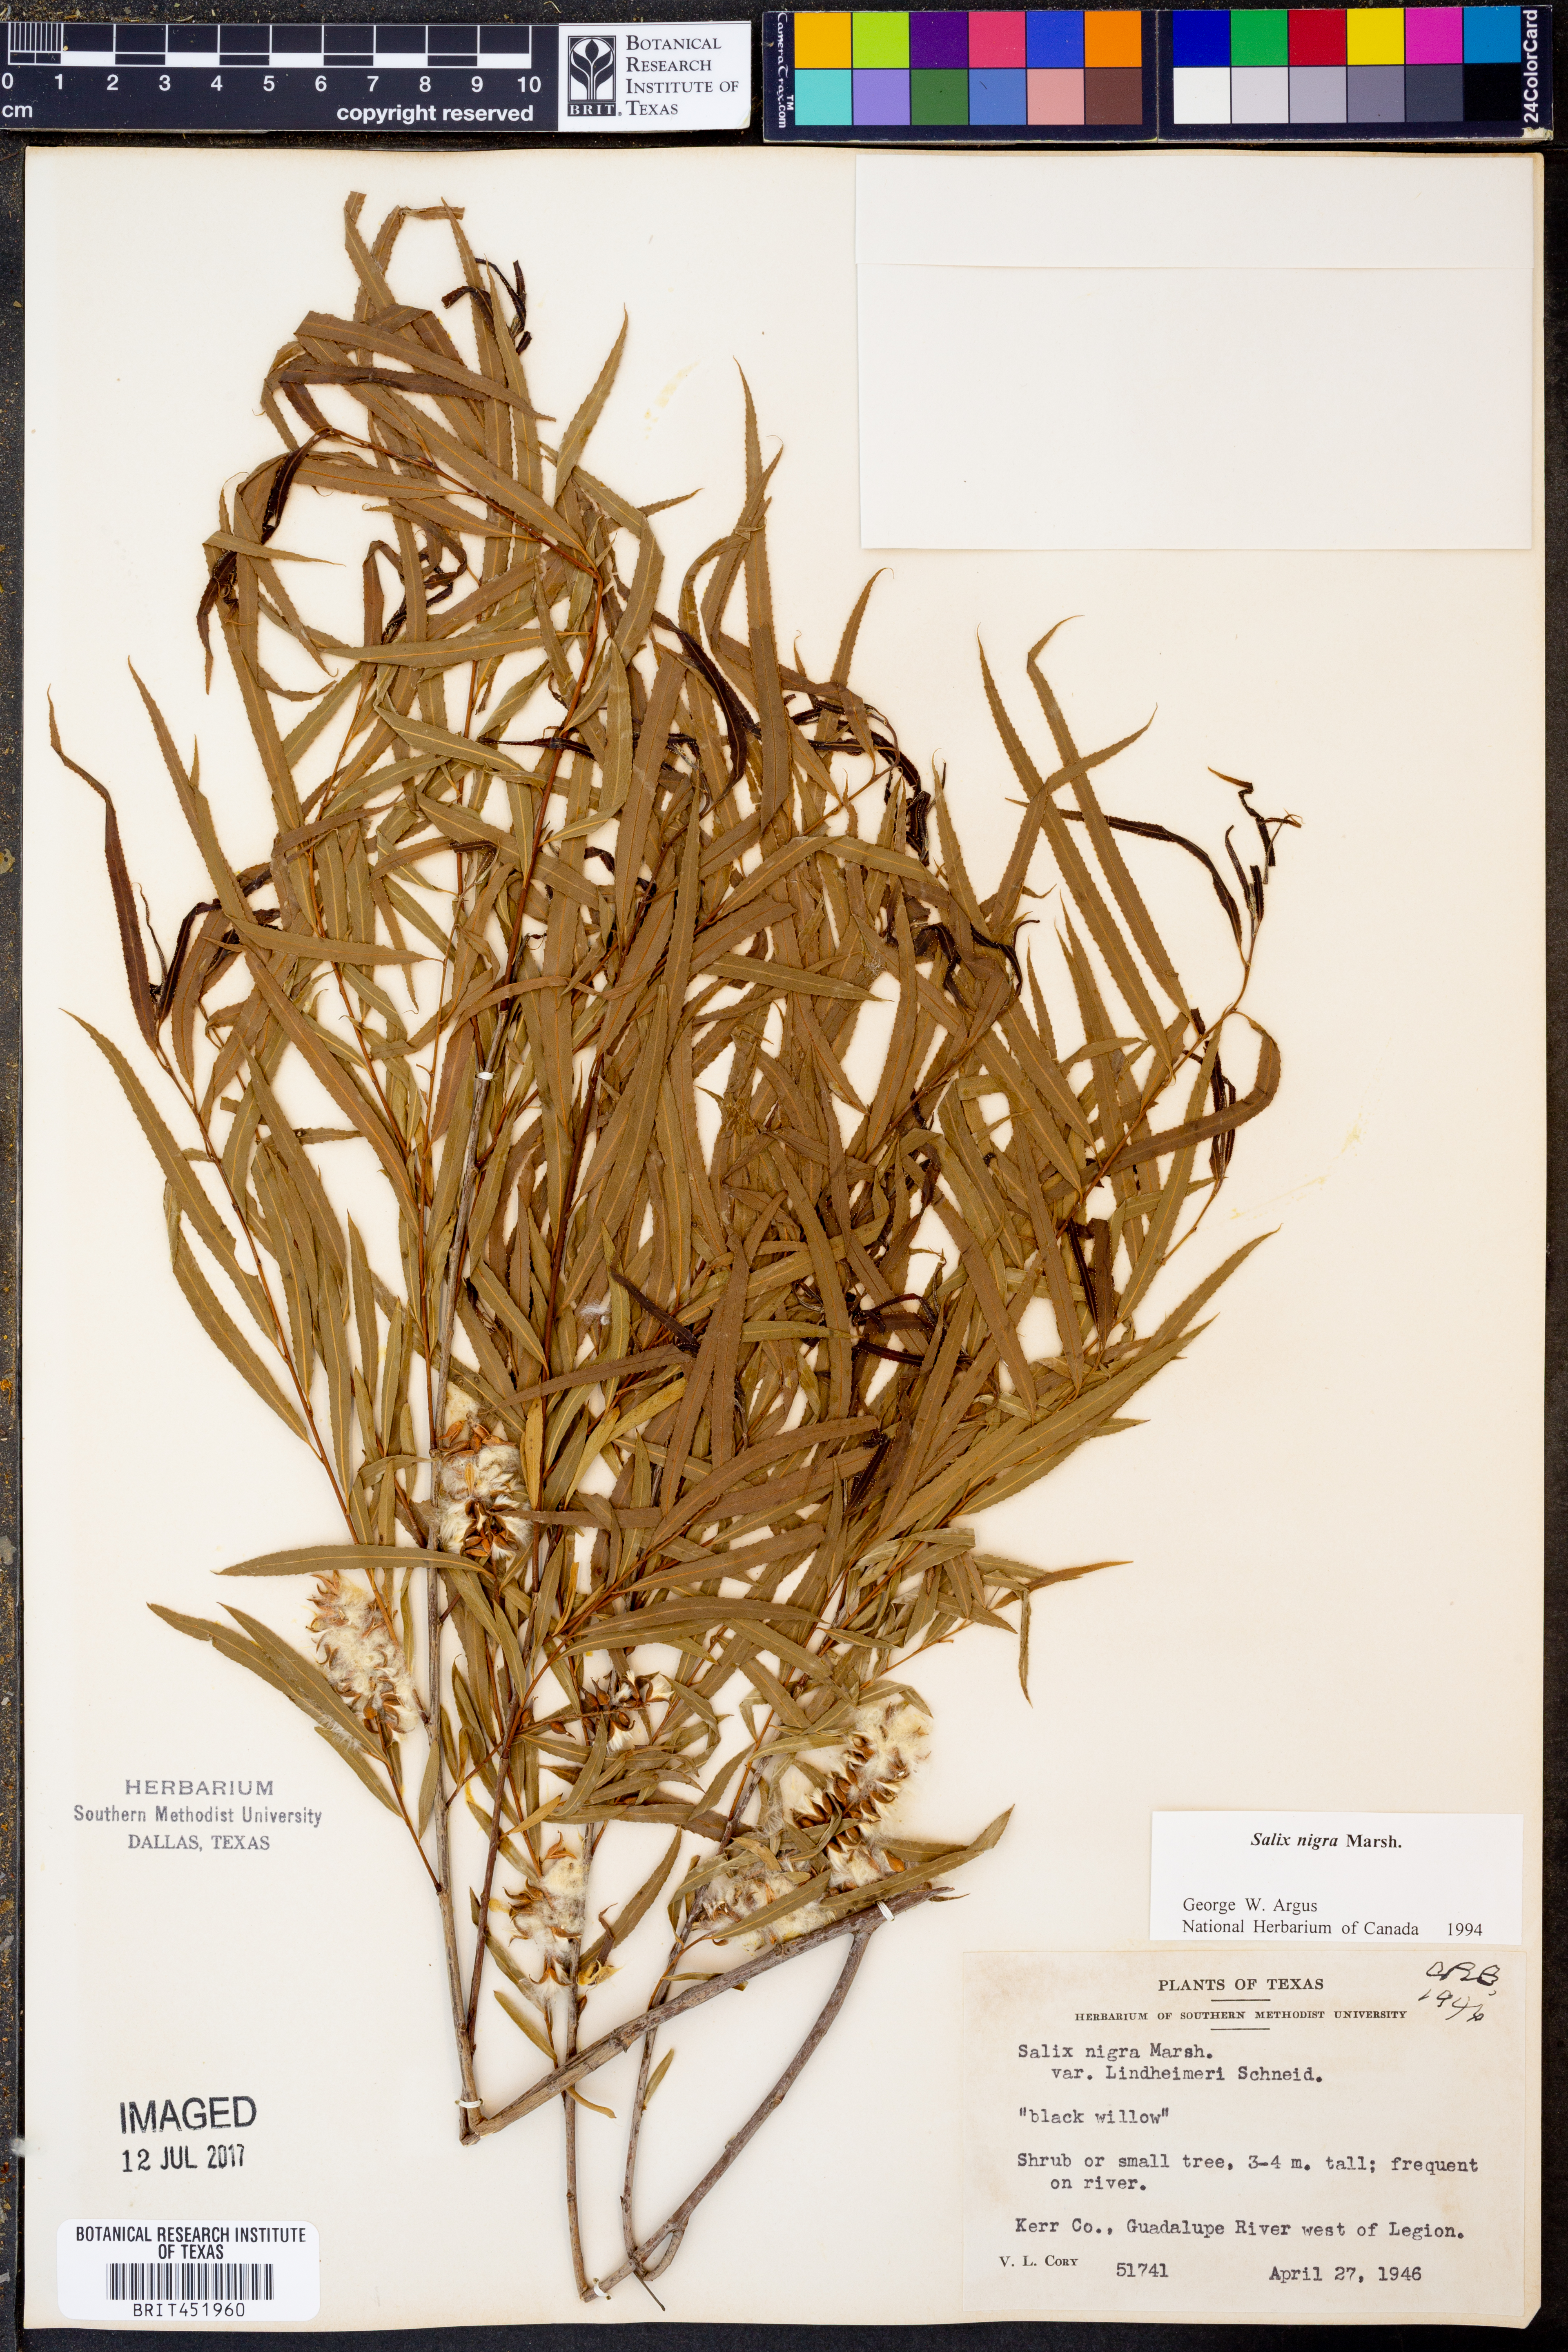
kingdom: Plantae
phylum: Tracheophyta
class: Magnoliopsida
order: Malpighiales
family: Salicaceae
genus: Salix
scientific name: Salix nigra
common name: Black willow
